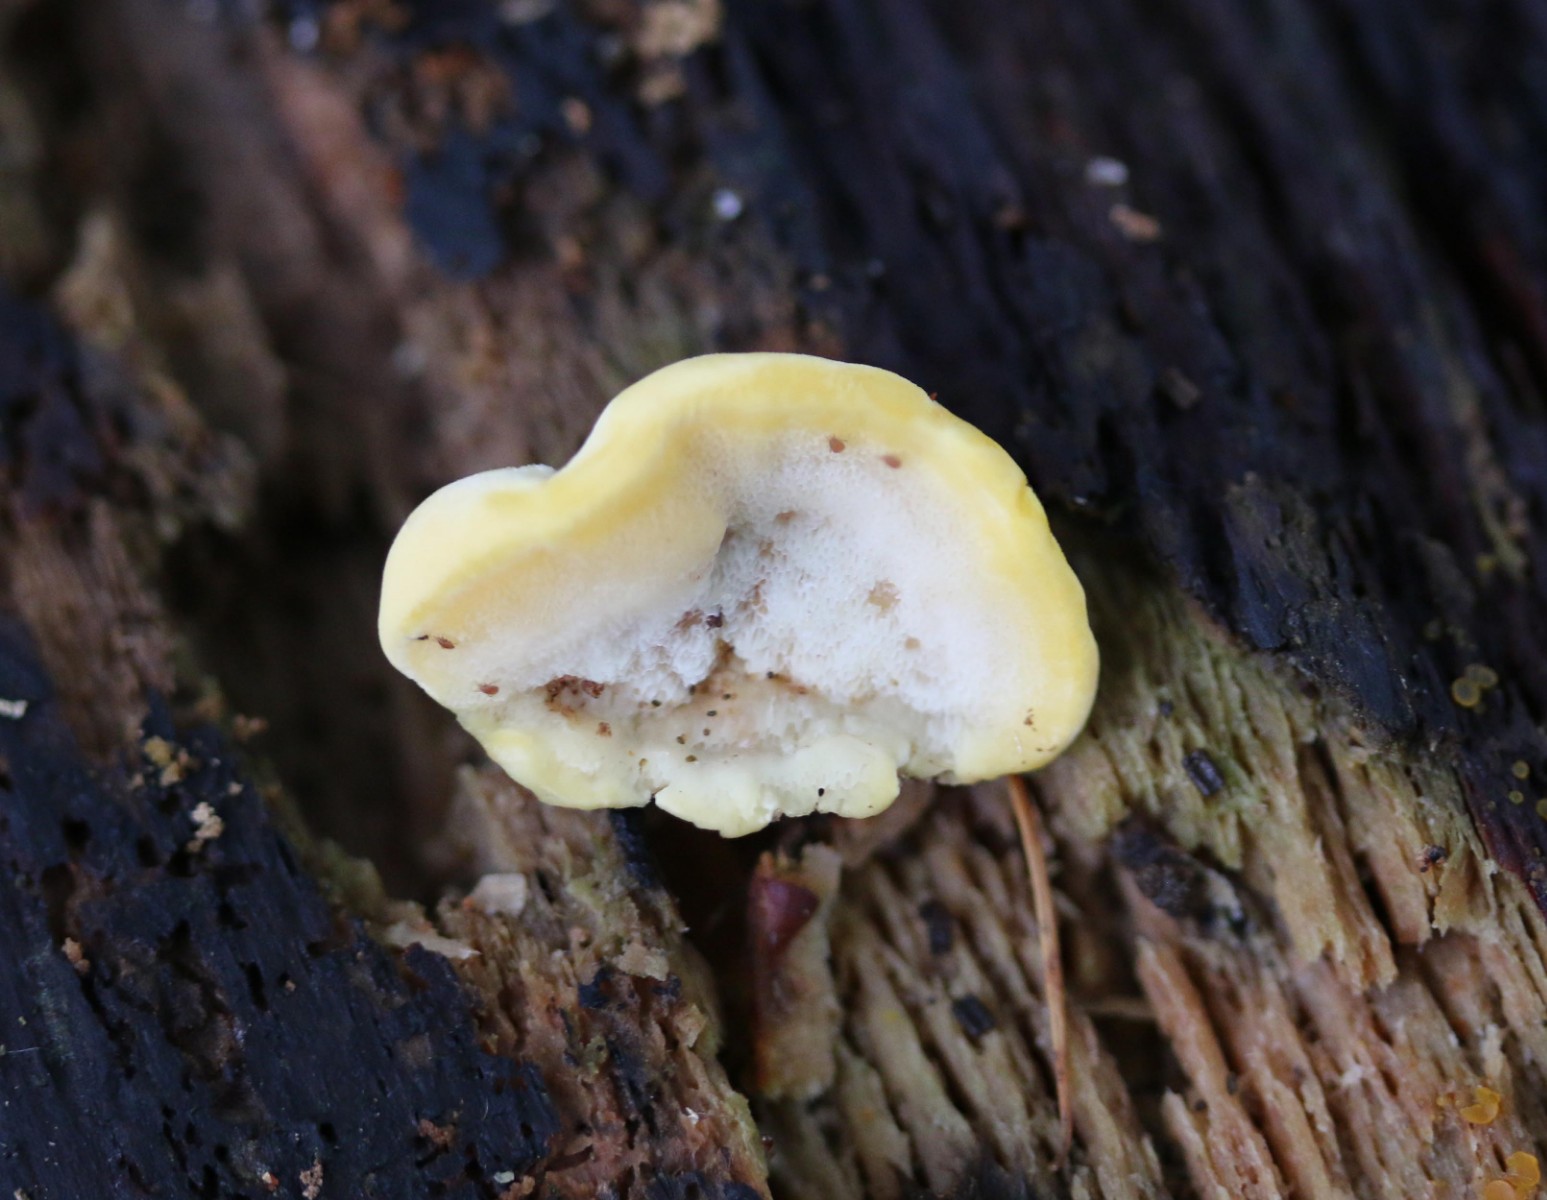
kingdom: Fungi
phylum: Basidiomycota
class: Agaricomycetes
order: Polyporales
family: Steccherinaceae
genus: Antrodiella
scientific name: Antrodiella serpula
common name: gulrandet elastikporesvamp
